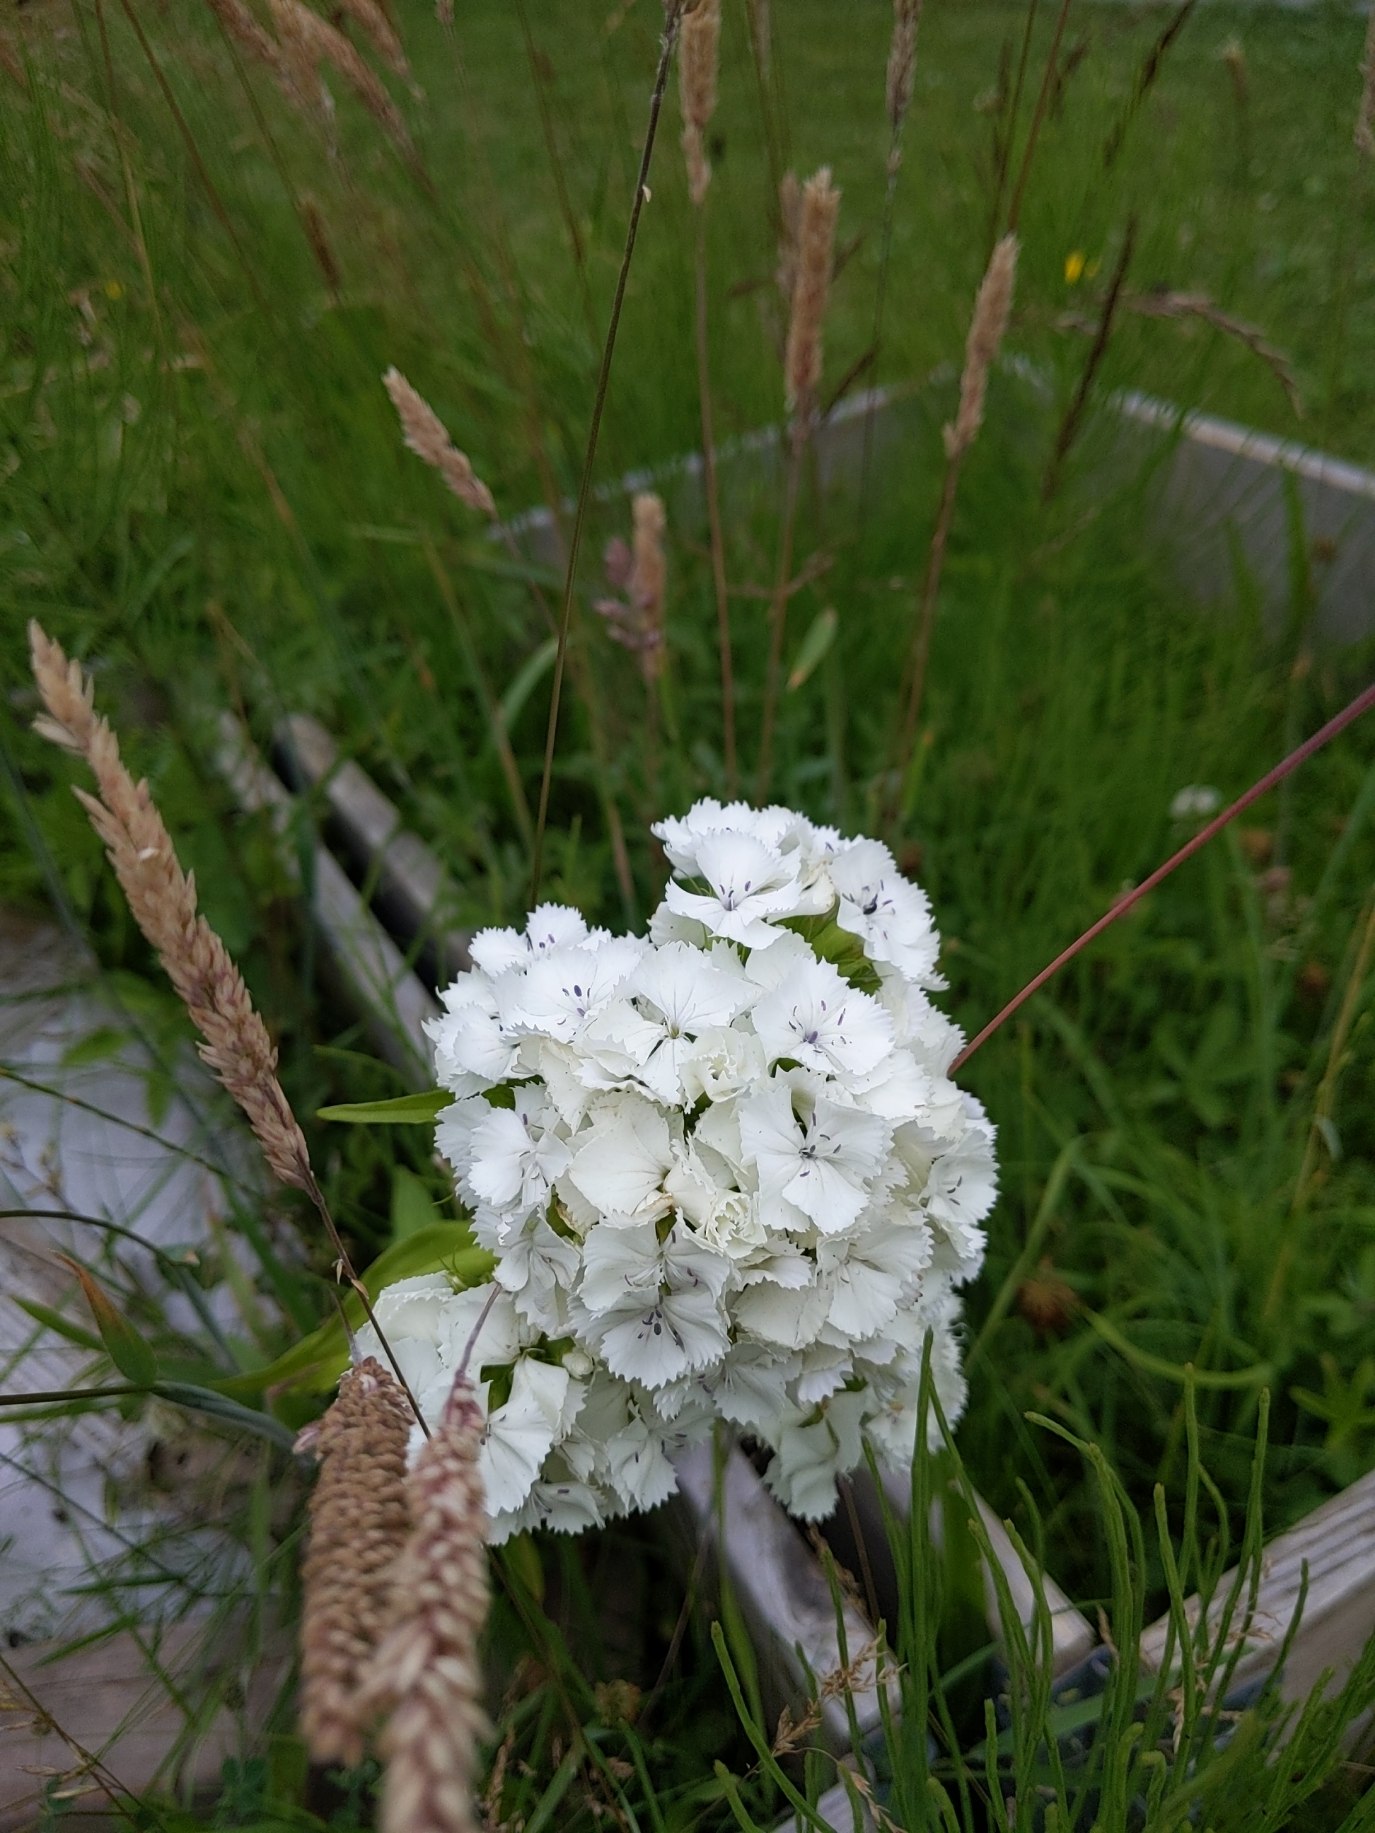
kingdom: Plantae
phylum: Tracheophyta
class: Magnoliopsida
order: Caryophyllales
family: Caryophyllaceae
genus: Dianthus
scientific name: Dianthus barbatus
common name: Studenter-nellike
